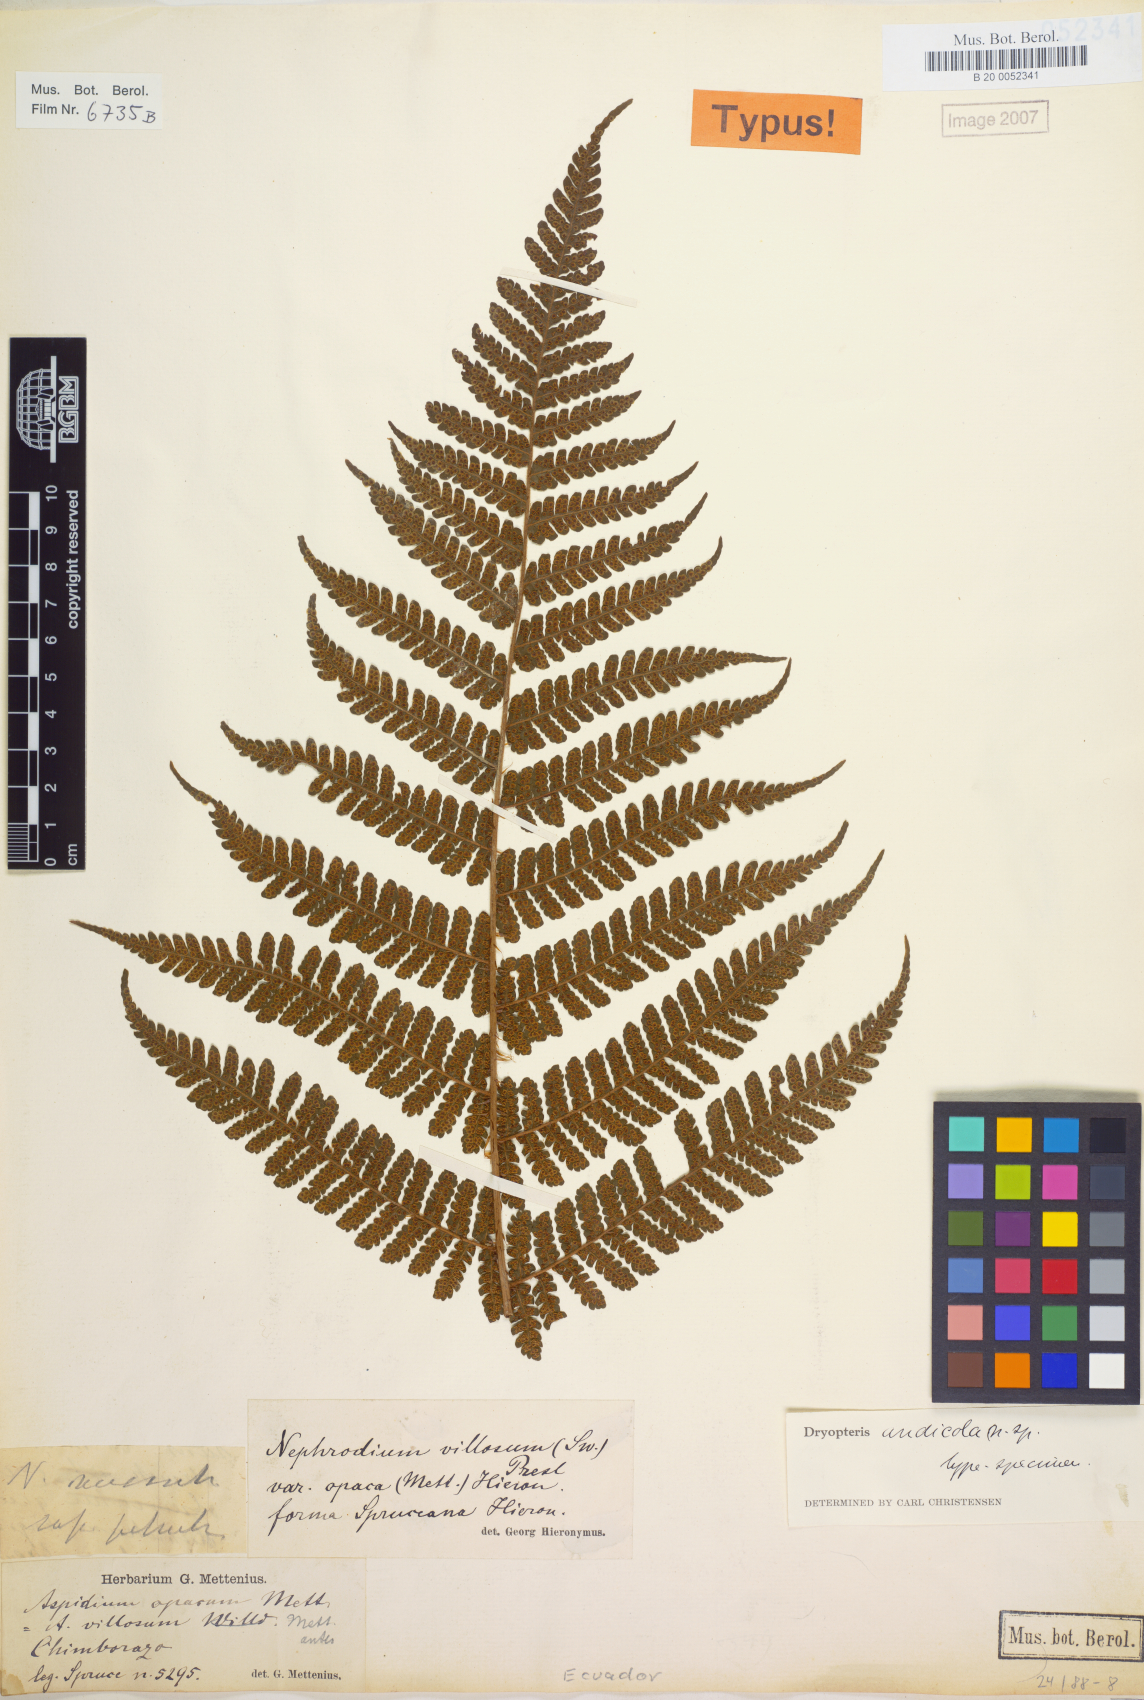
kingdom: Plantae
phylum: Tracheophyta
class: Polypodiopsida
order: Polypodiales
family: Dryopteridaceae
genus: Megalastrum
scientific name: Megalastrum andicola
